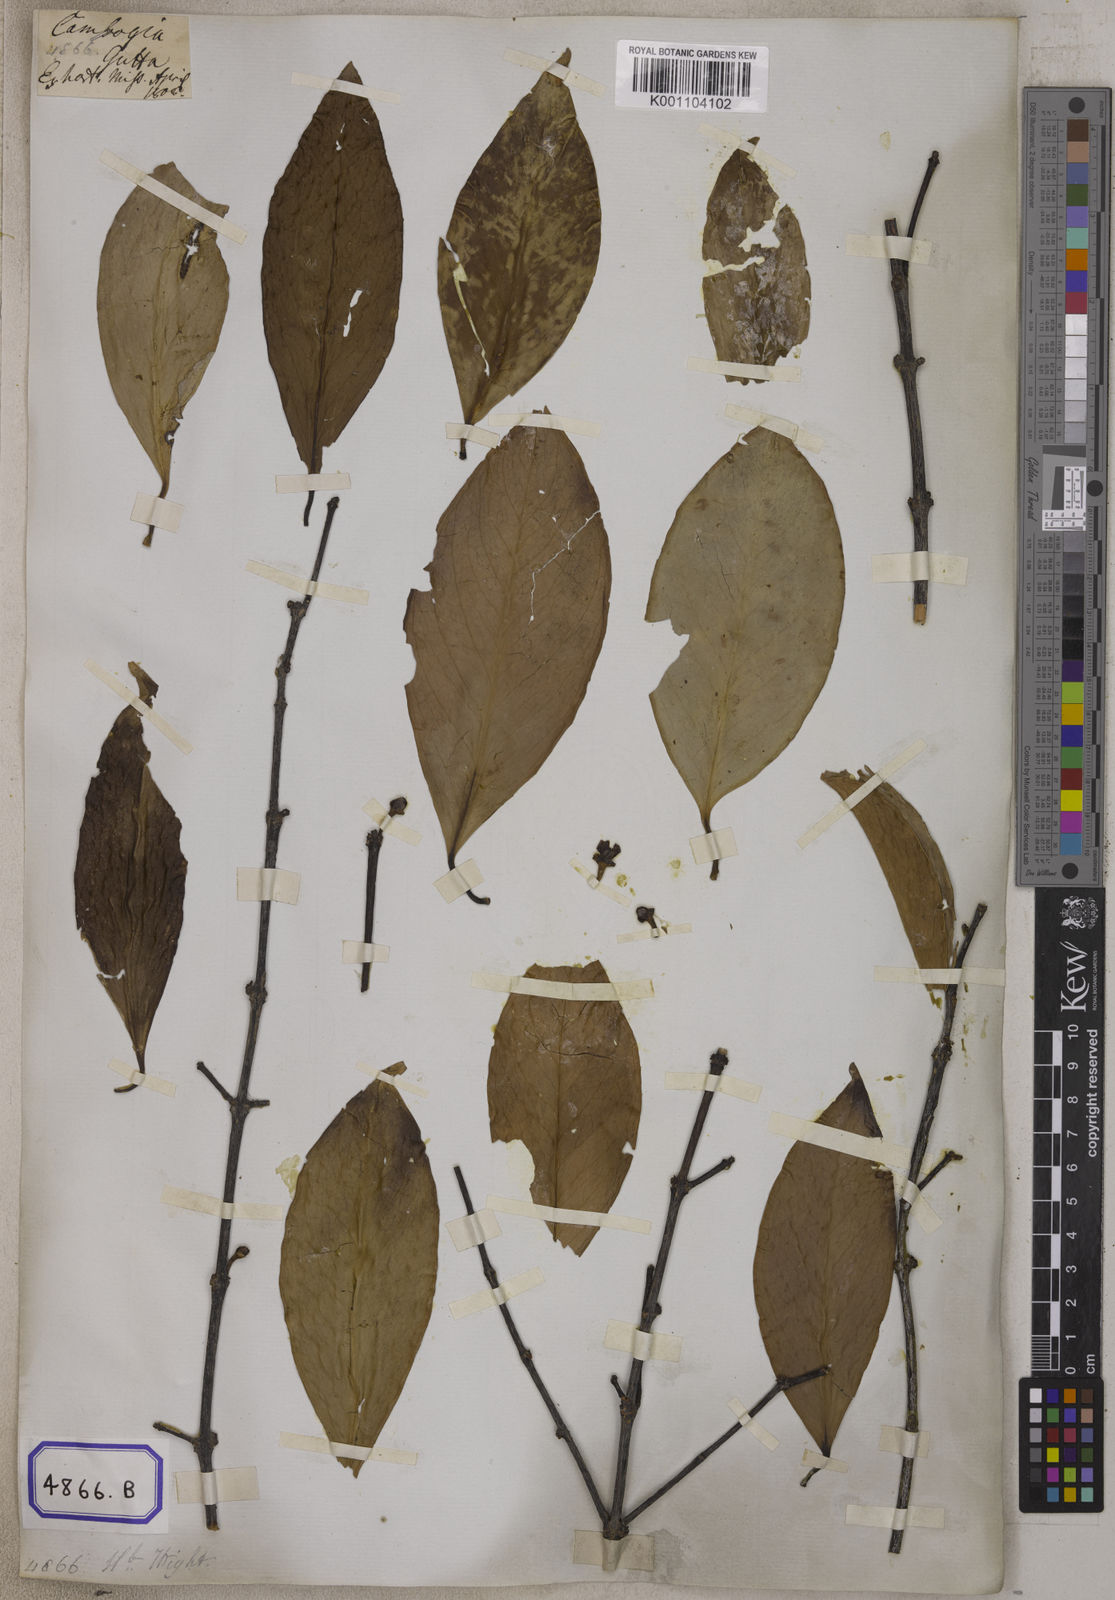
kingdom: Plantae
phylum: Tracheophyta
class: Magnoliopsida
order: Malpighiales
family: Clusiaceae
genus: Garcinia
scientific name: Garcinia
